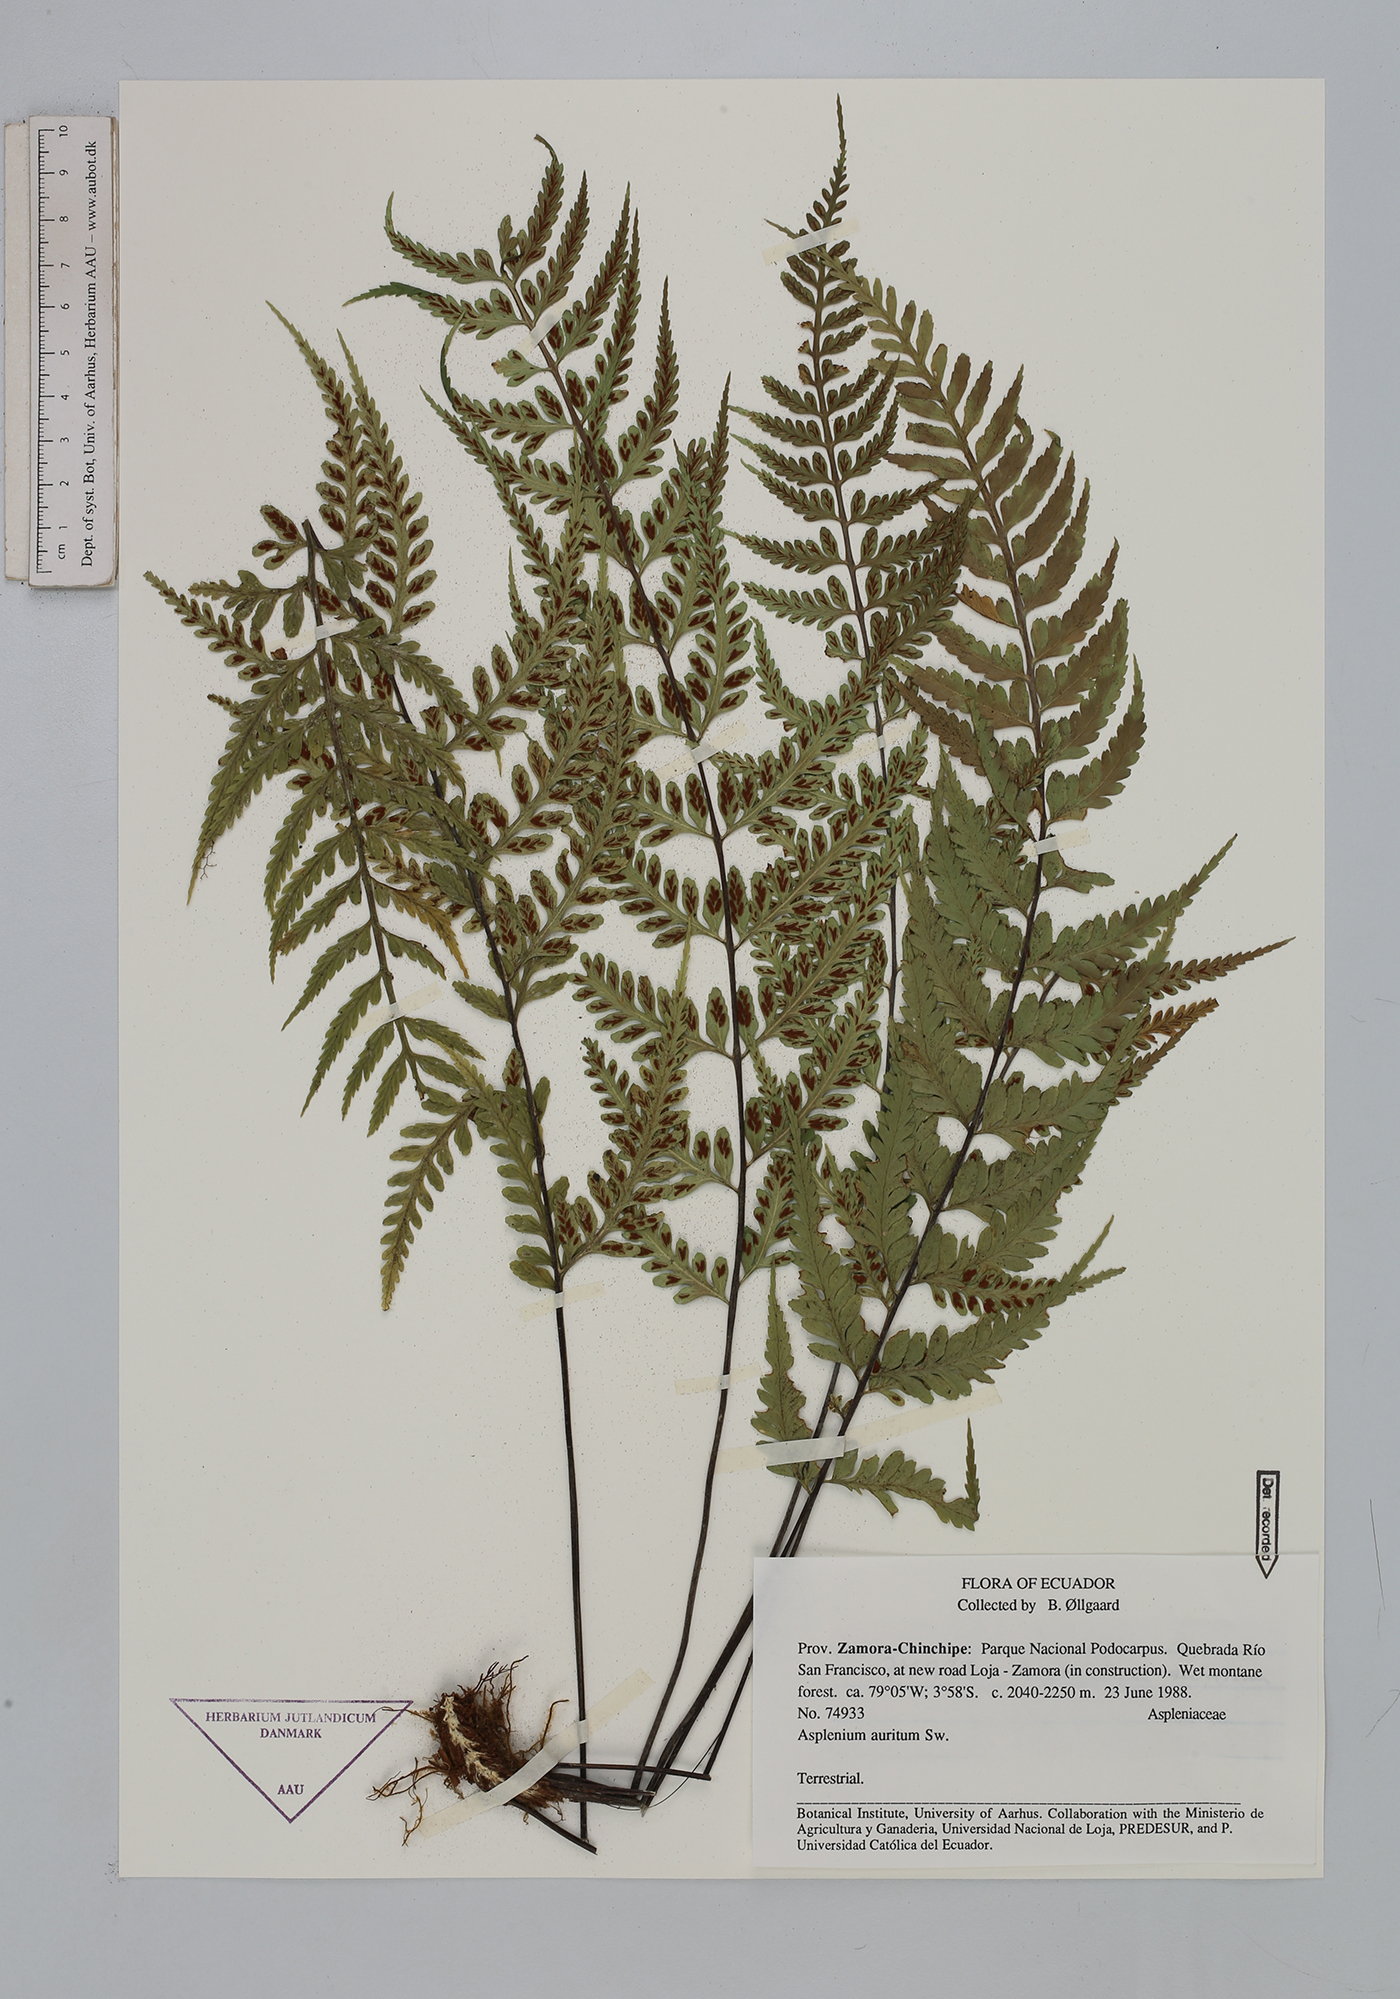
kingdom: Plantae
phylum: Tracheophyta
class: Polypodiopsida
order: Polypodiales
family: Aspleniaceae
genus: Asplenium
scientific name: Asplenium auritum
